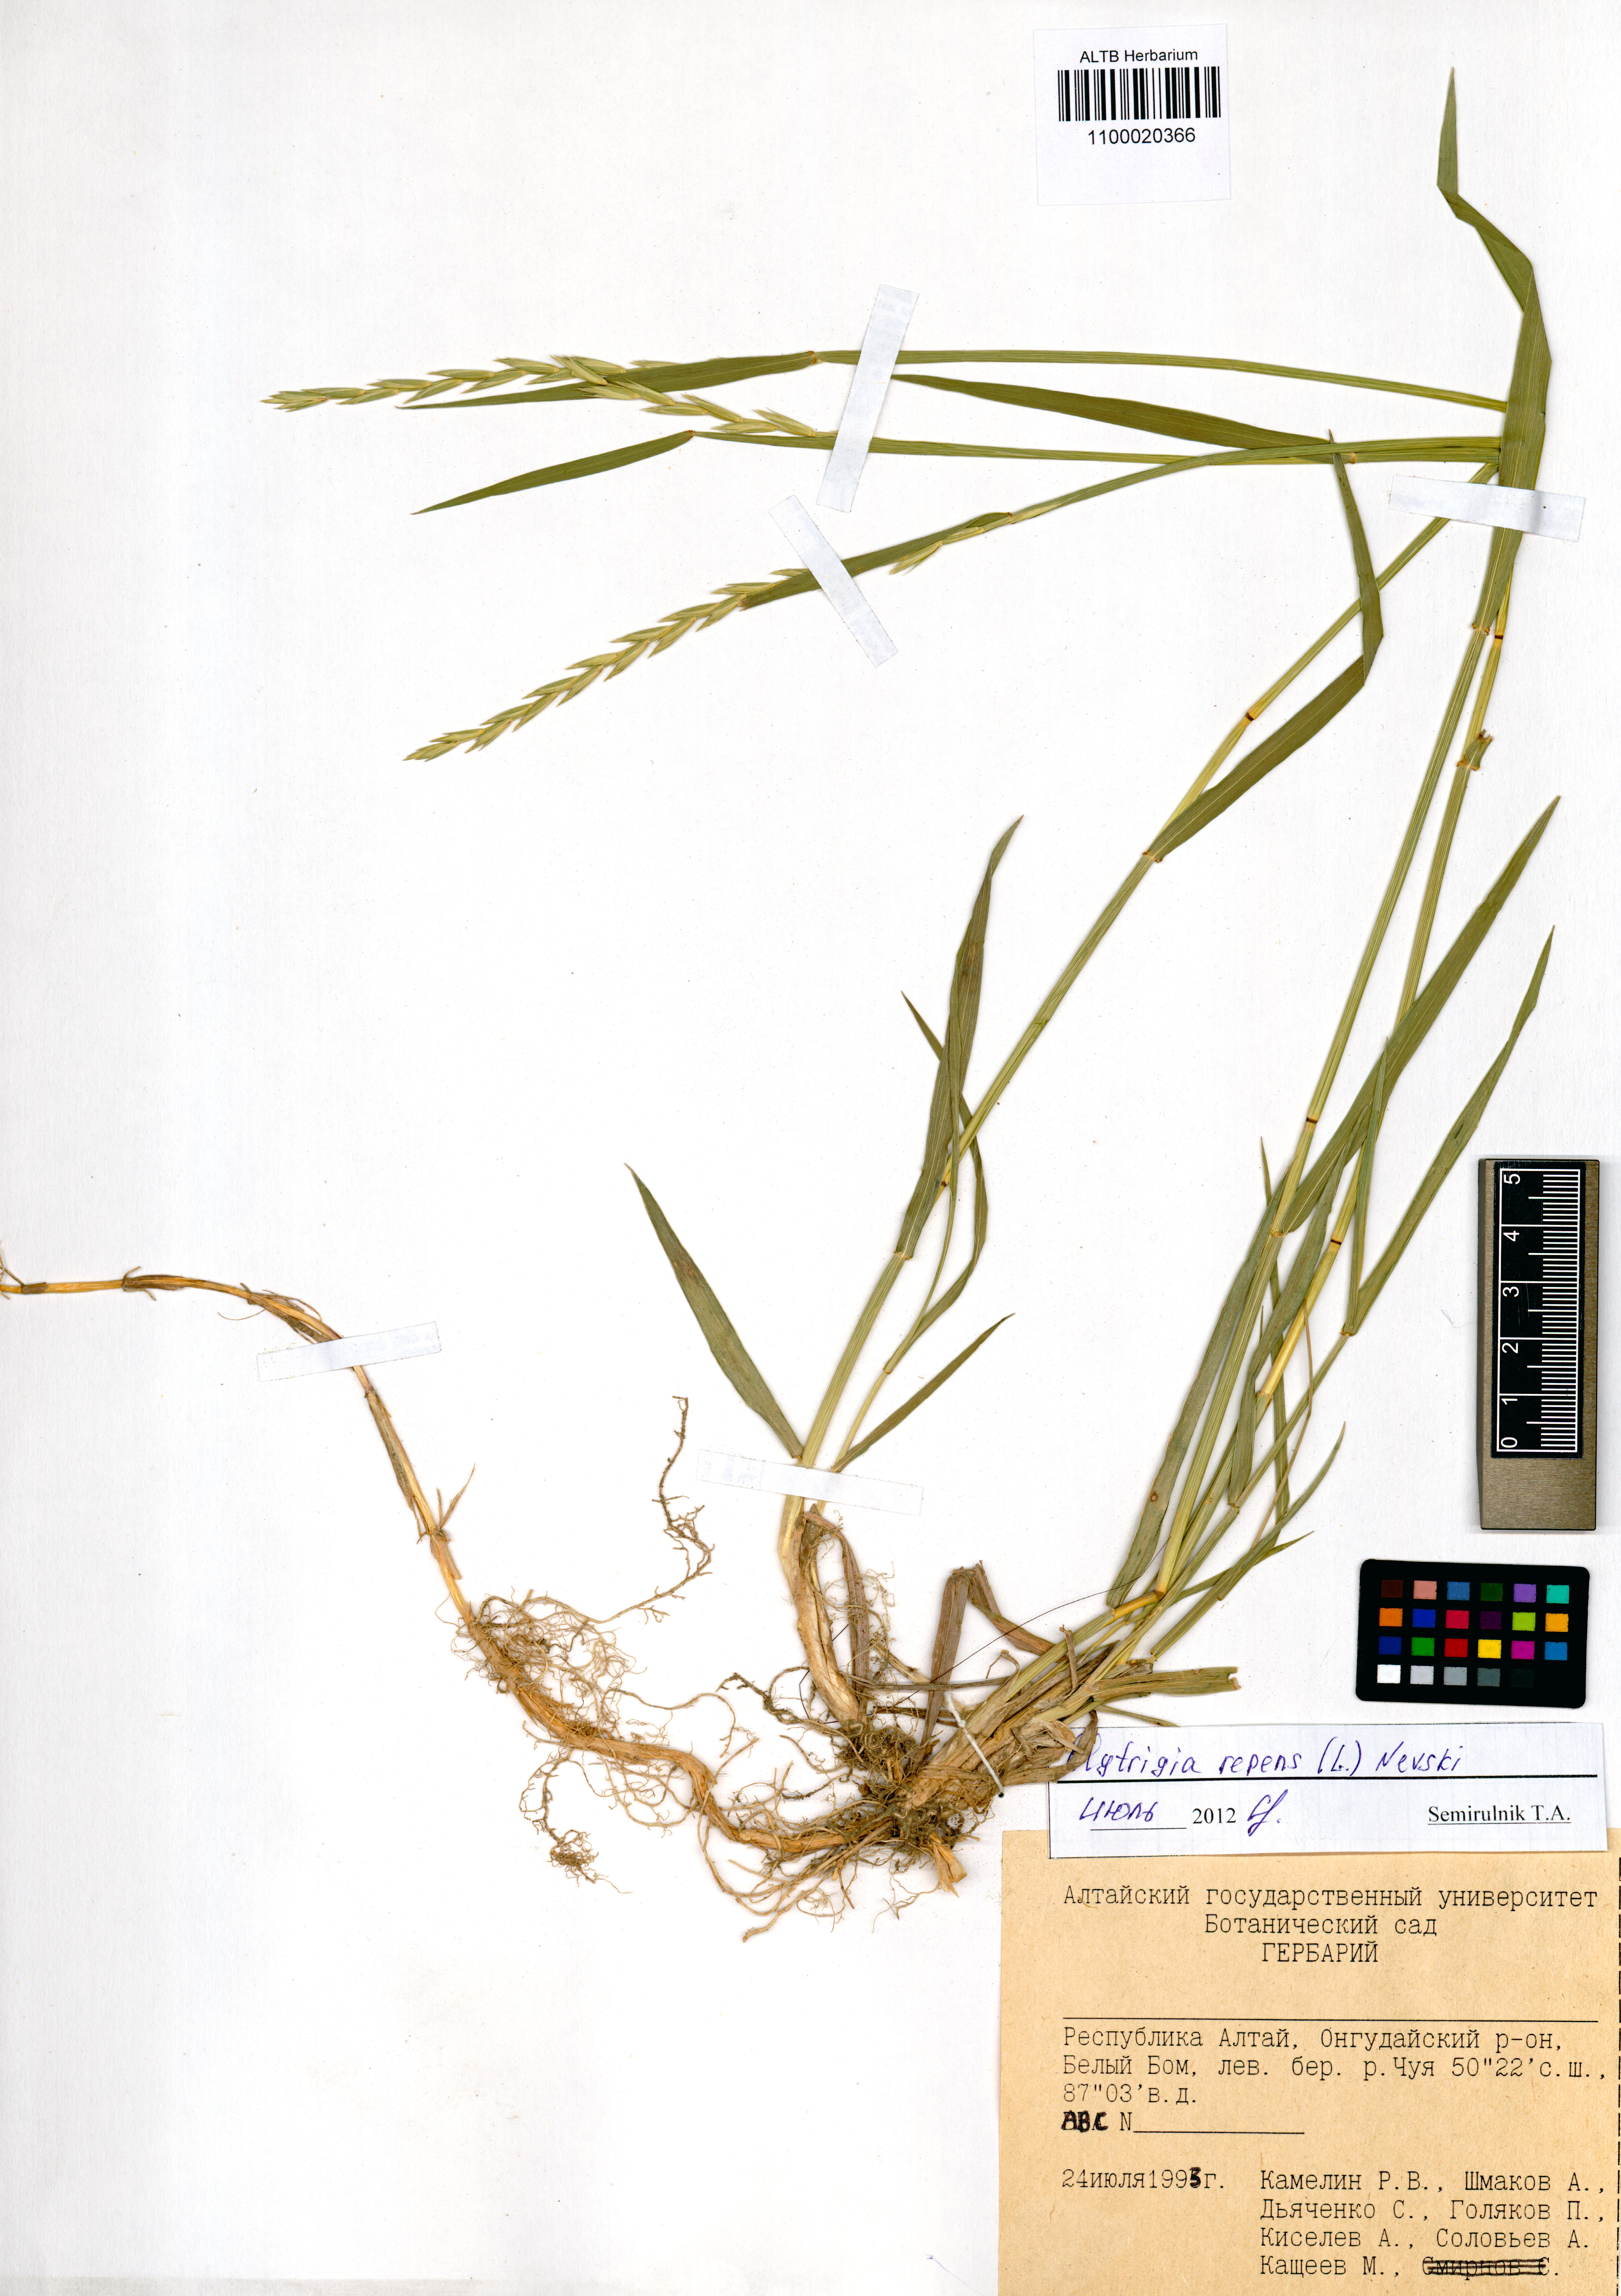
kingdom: Plantae
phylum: Tracheophyta
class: Liliopsida
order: Poales
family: Poaceae
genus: Elymus
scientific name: Elymus repens
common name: Quackgrass
